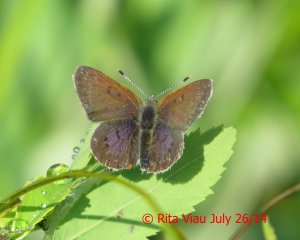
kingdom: Animalia
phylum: Arthropoda
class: Insecta
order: Lepidoptera
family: Sesiidae
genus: Sesia
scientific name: Sesia Lycaena epixanthe
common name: Bog Copper
